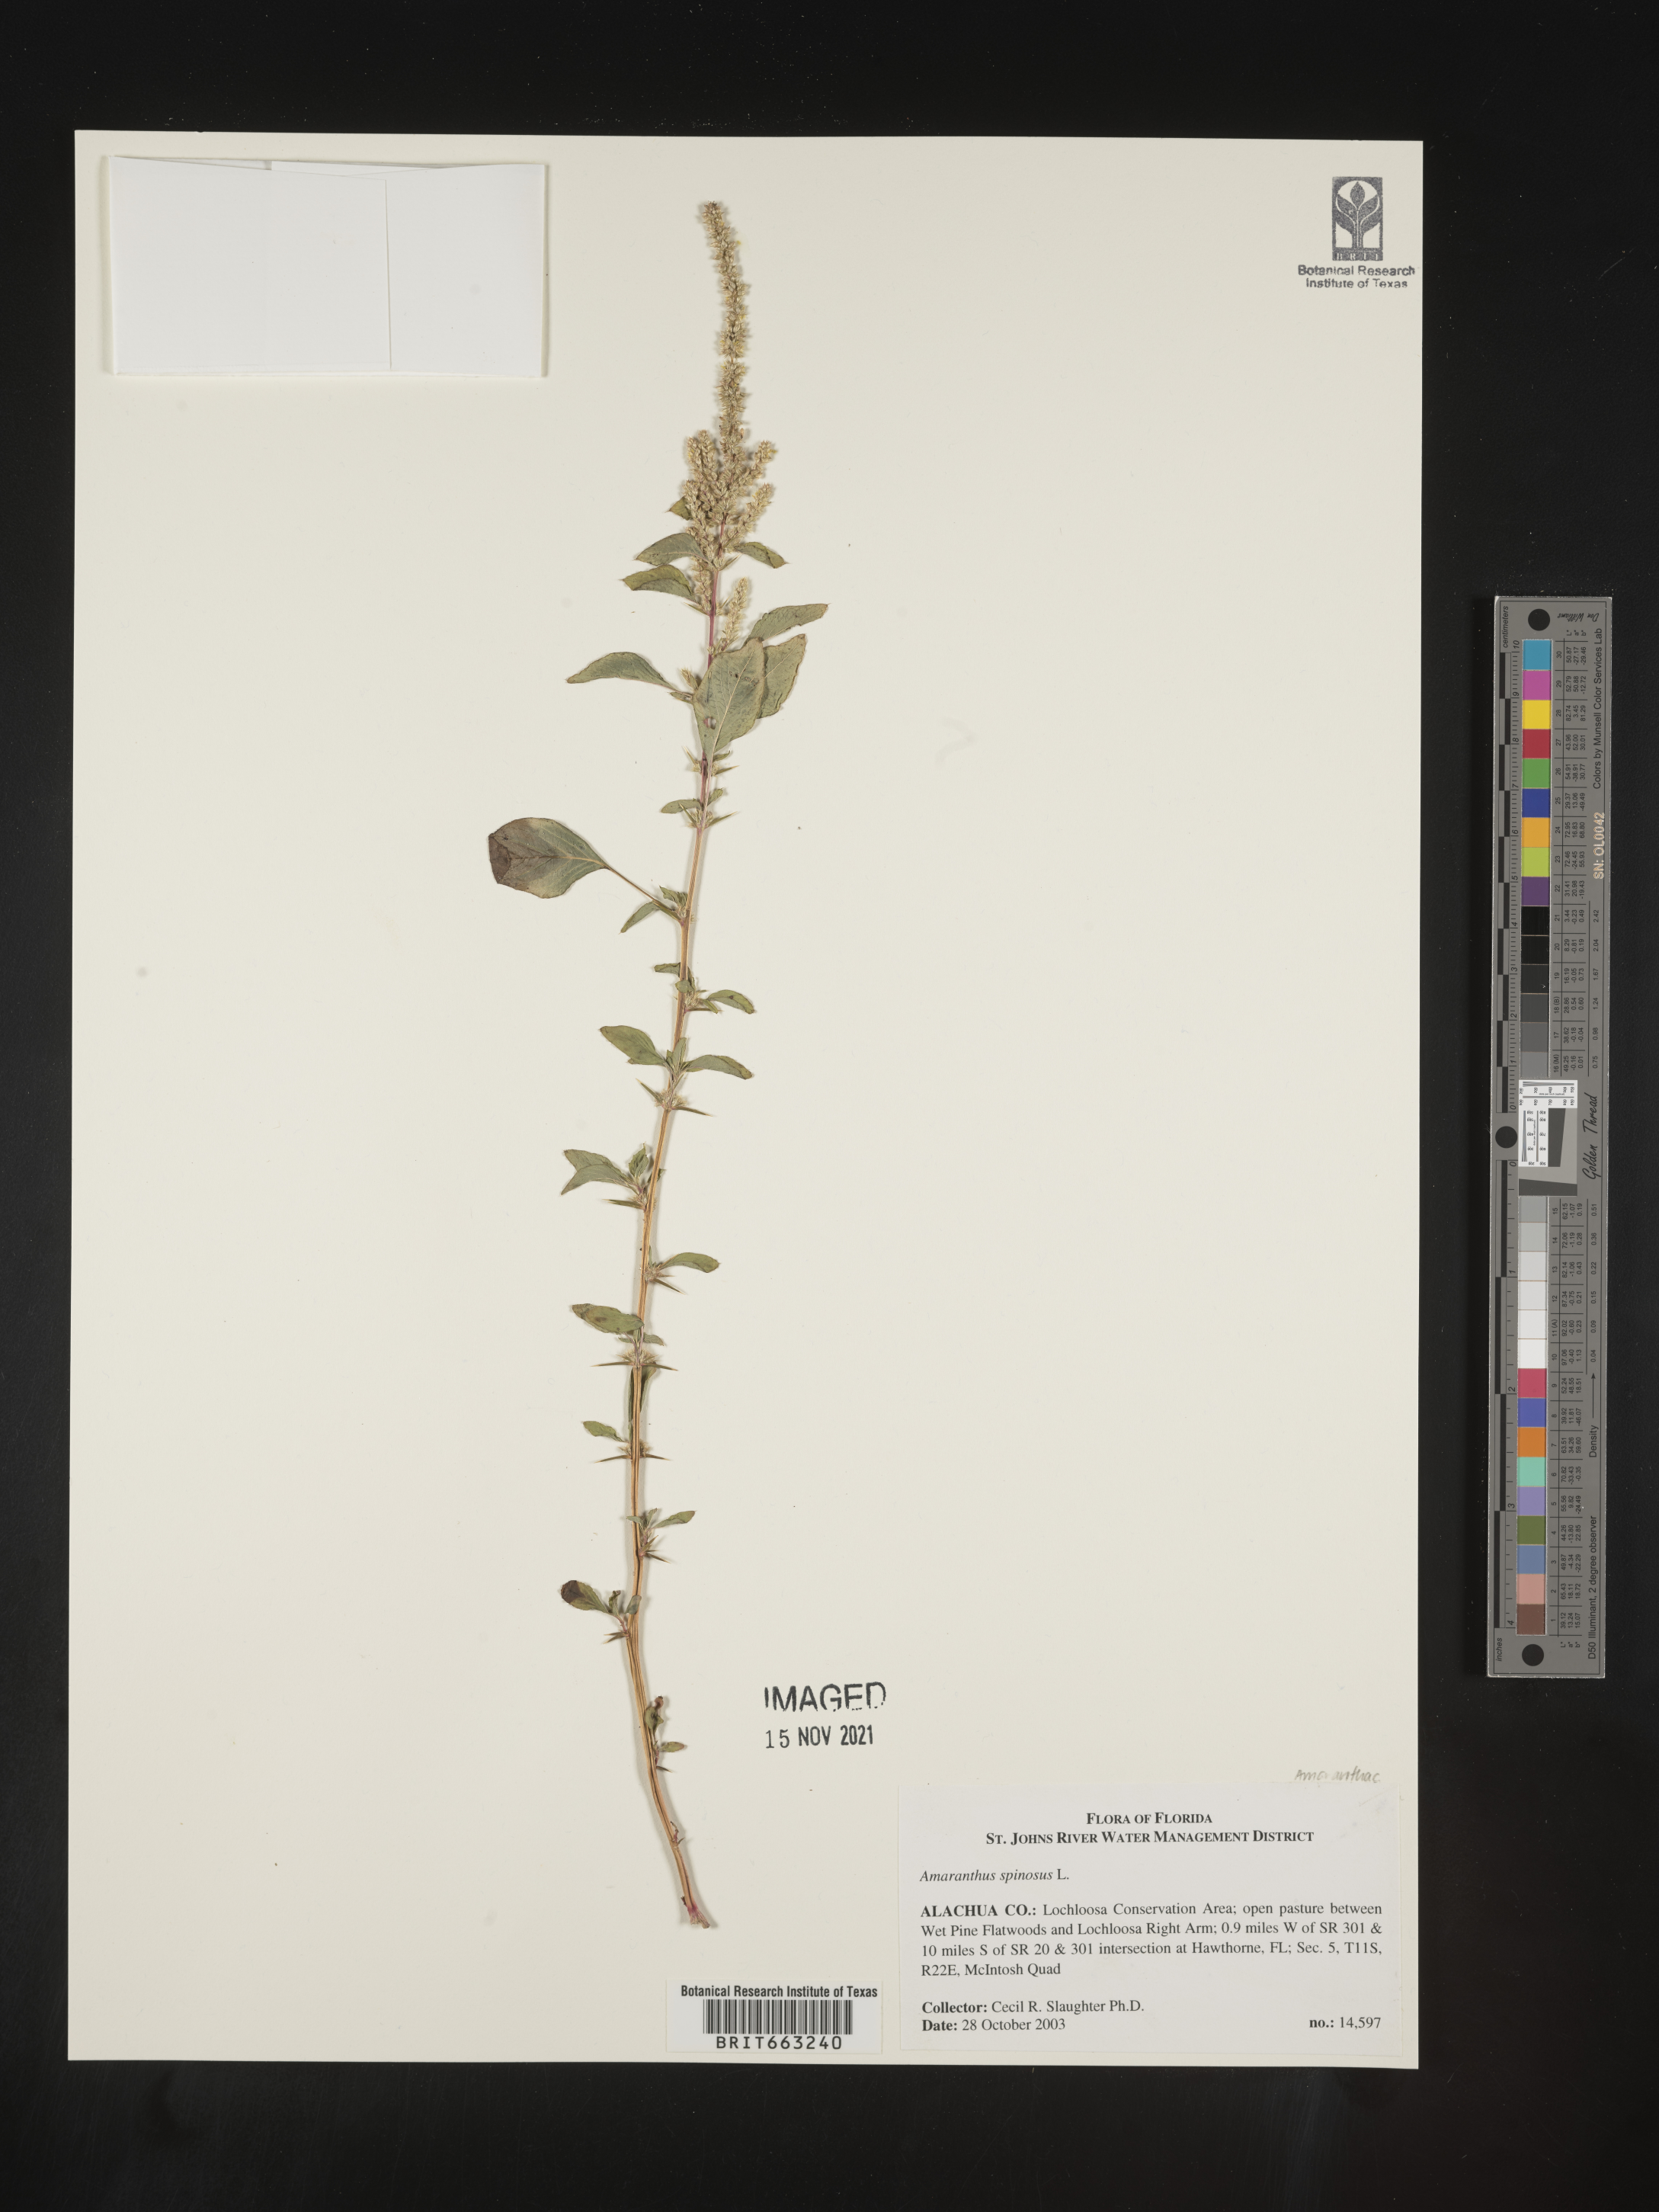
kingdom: Plantae
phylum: Tracheophyta
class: Magnoliopsida
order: Caryophyllales
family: Amaranthaceae
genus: Amaranthus
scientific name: Amaranthus spinosus
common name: Spiny amaranth
